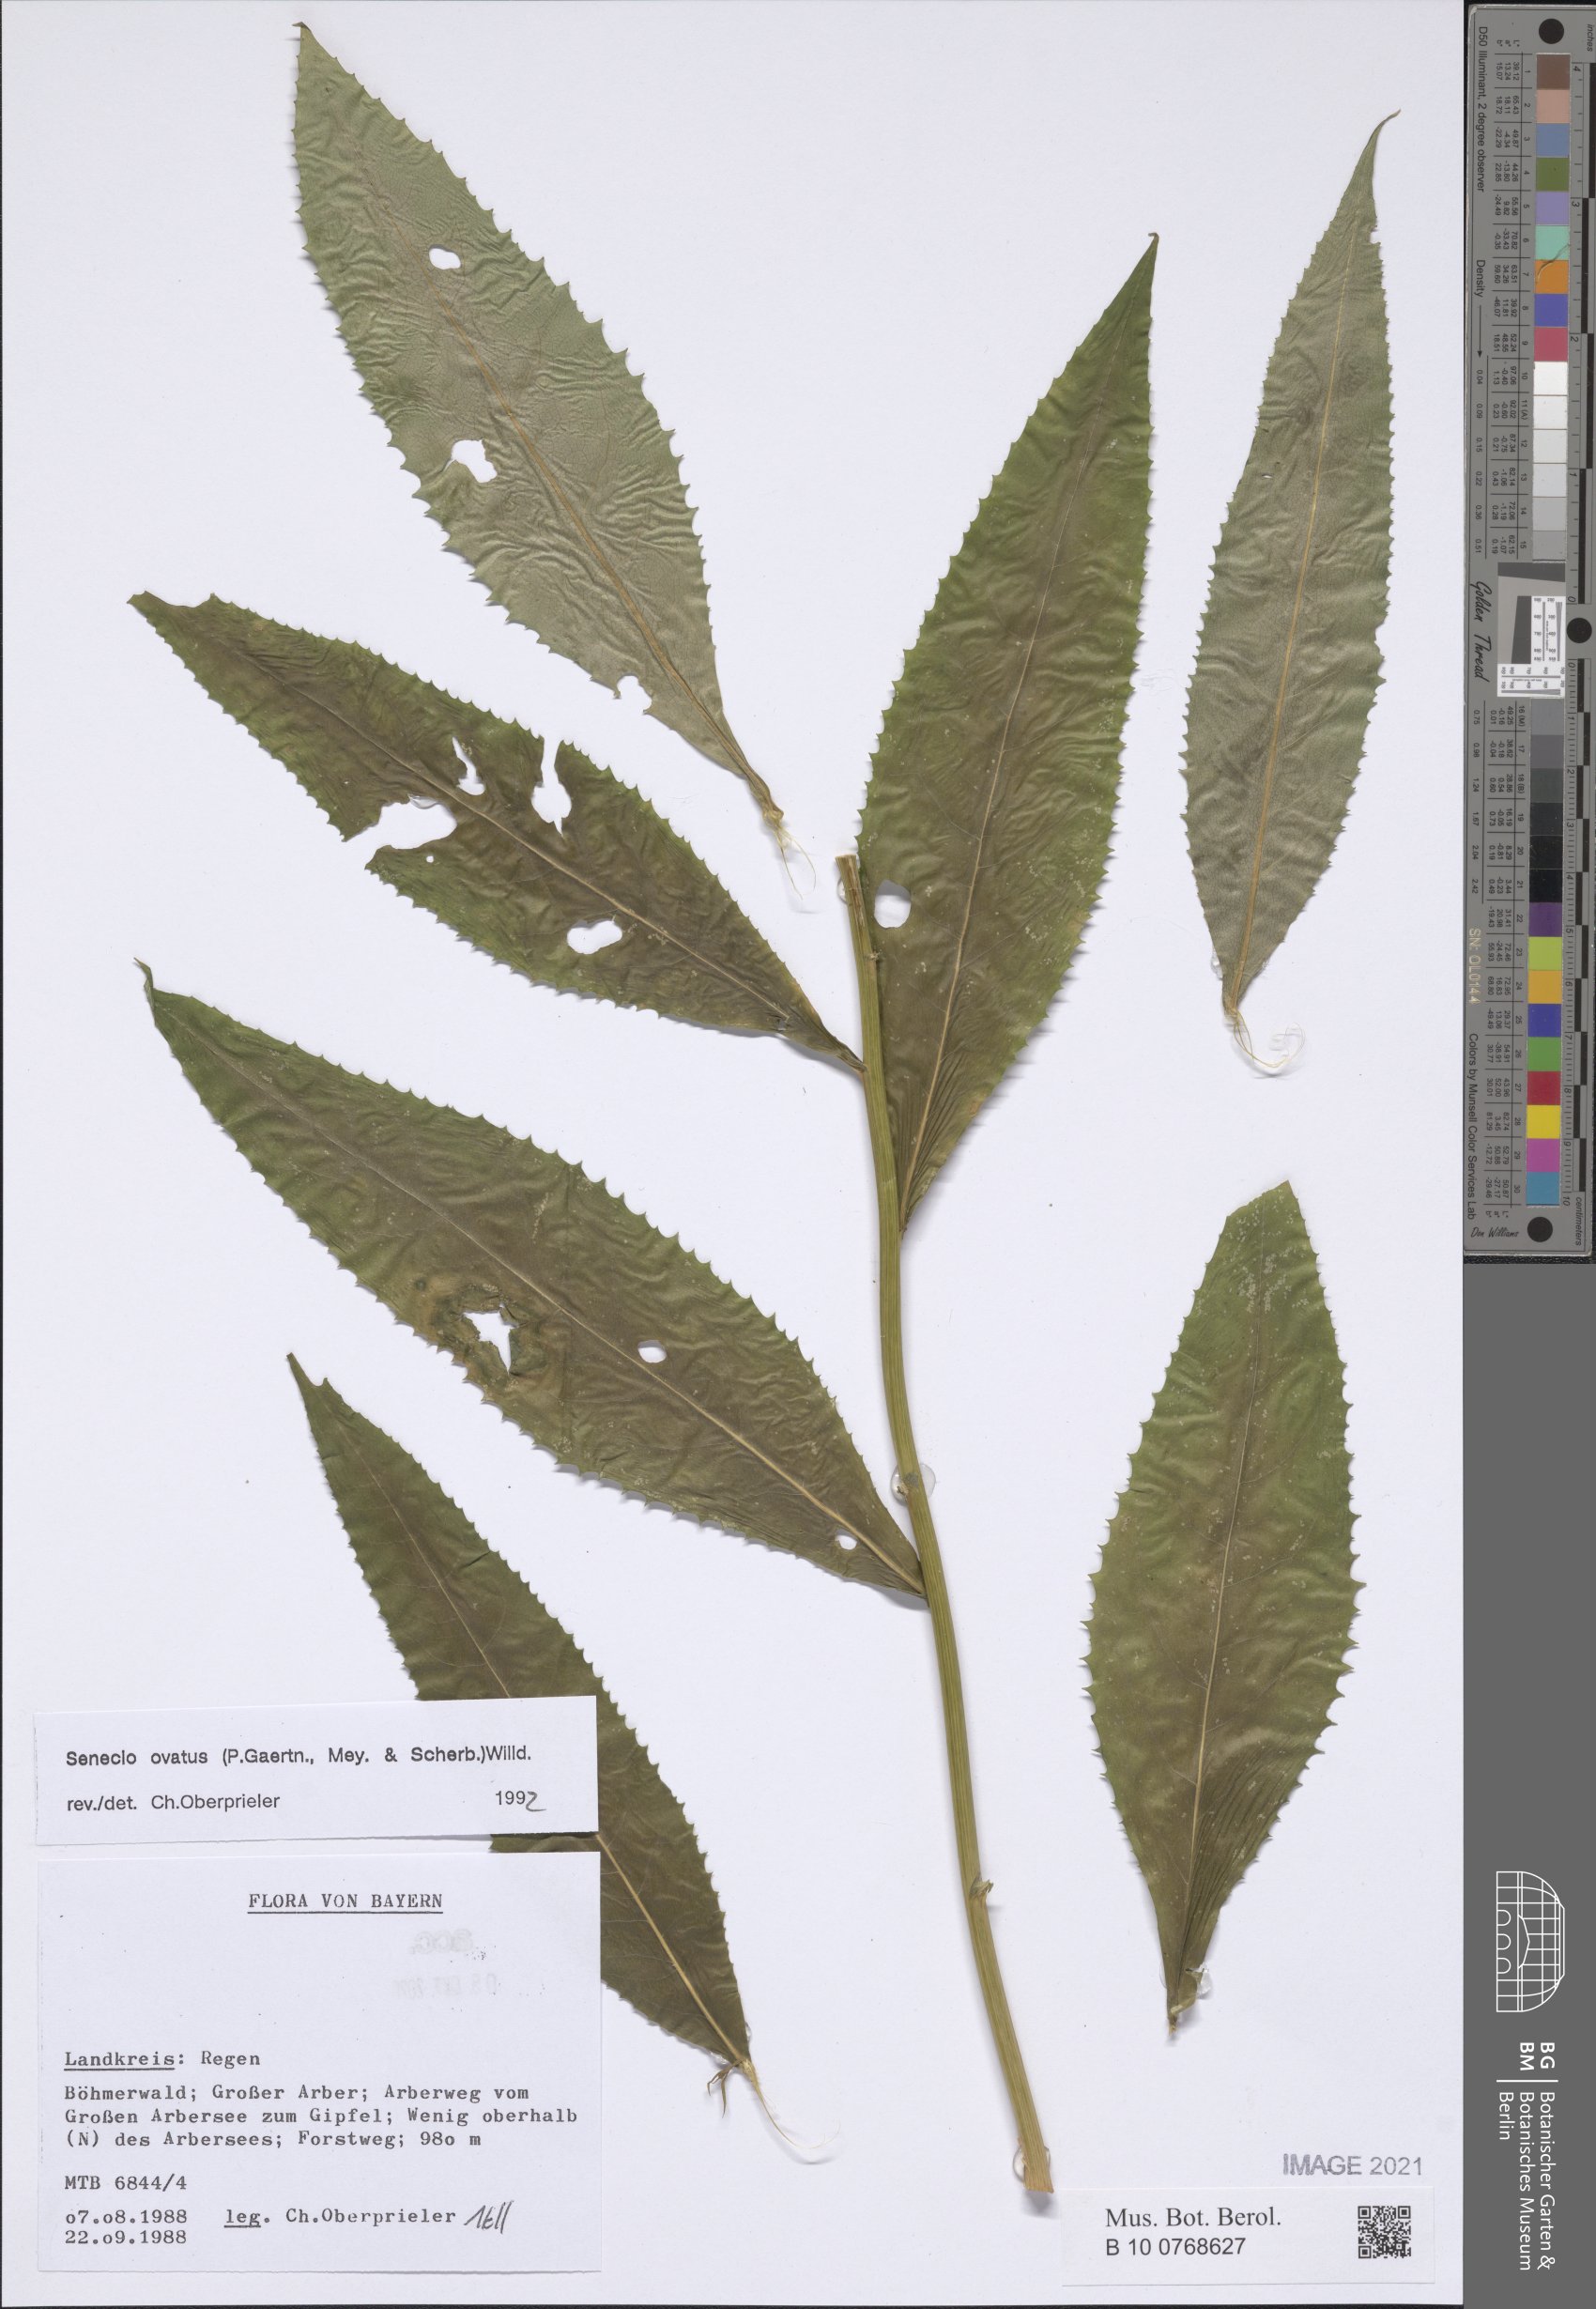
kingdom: Plantae
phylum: Tracheophyta
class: Magnoliopsida
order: Asterales
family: Asteraceae
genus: Senecio
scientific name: Senecio ovatus
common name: Wood ragwort
